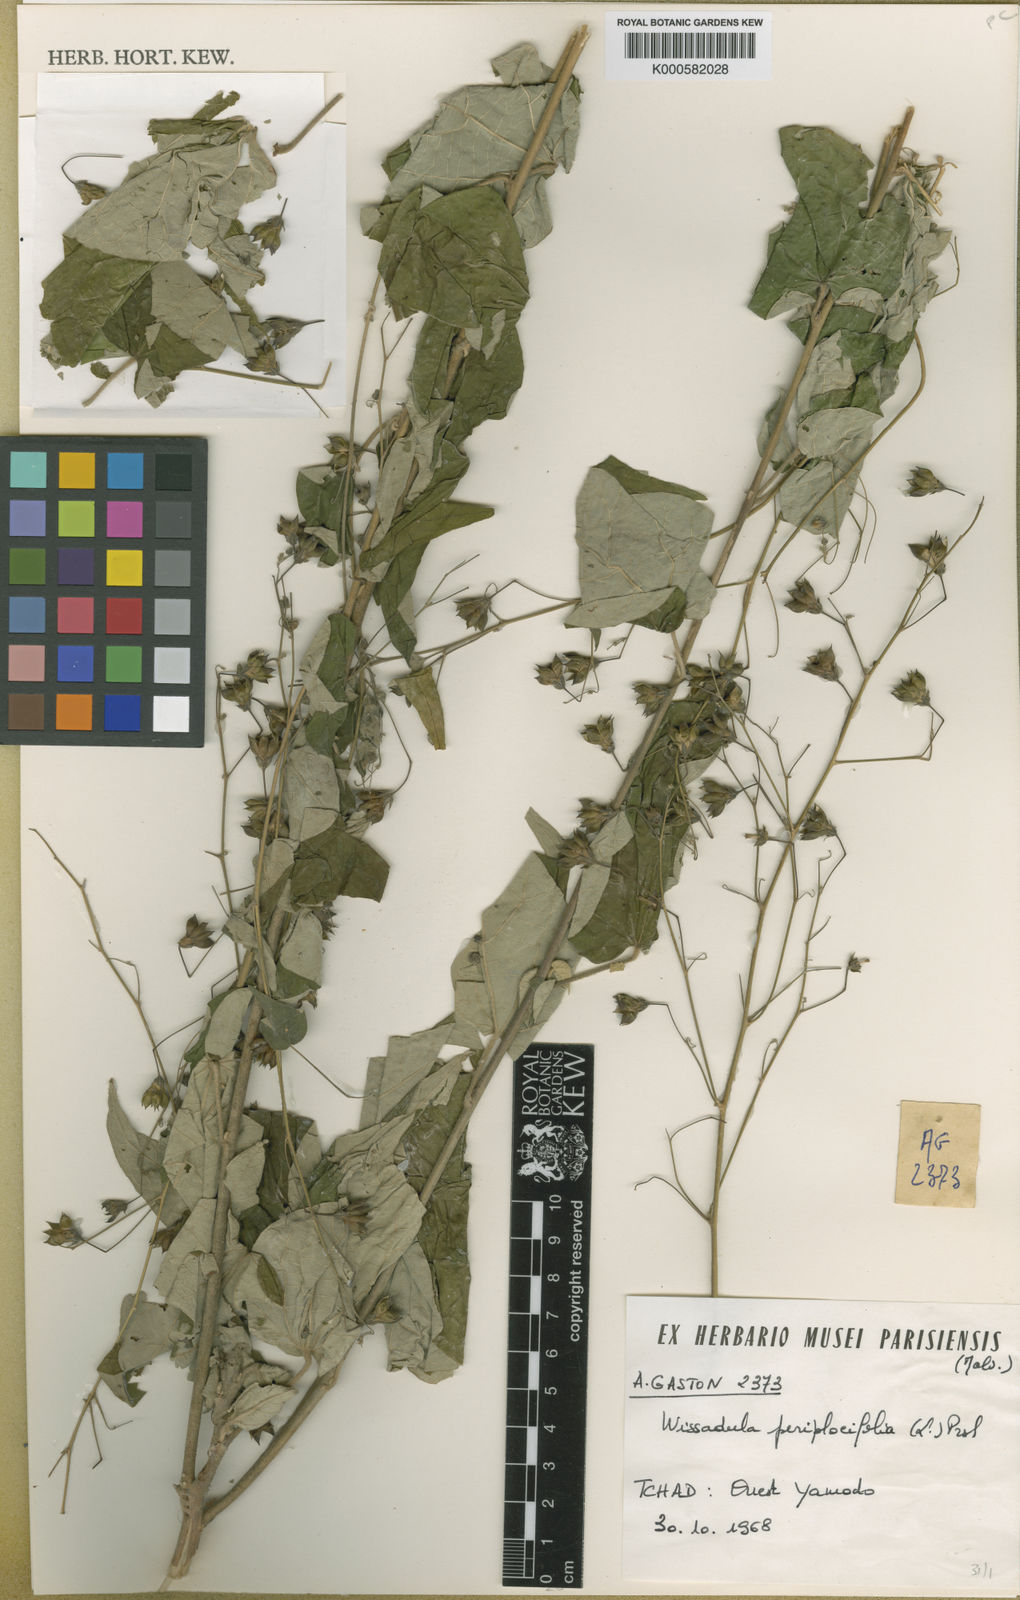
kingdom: Plantae
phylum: Tracheophyta
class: Magnoliopsida
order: Malvales
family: Malvaceae
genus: Wissadula
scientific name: Wissadula periplocifolia
